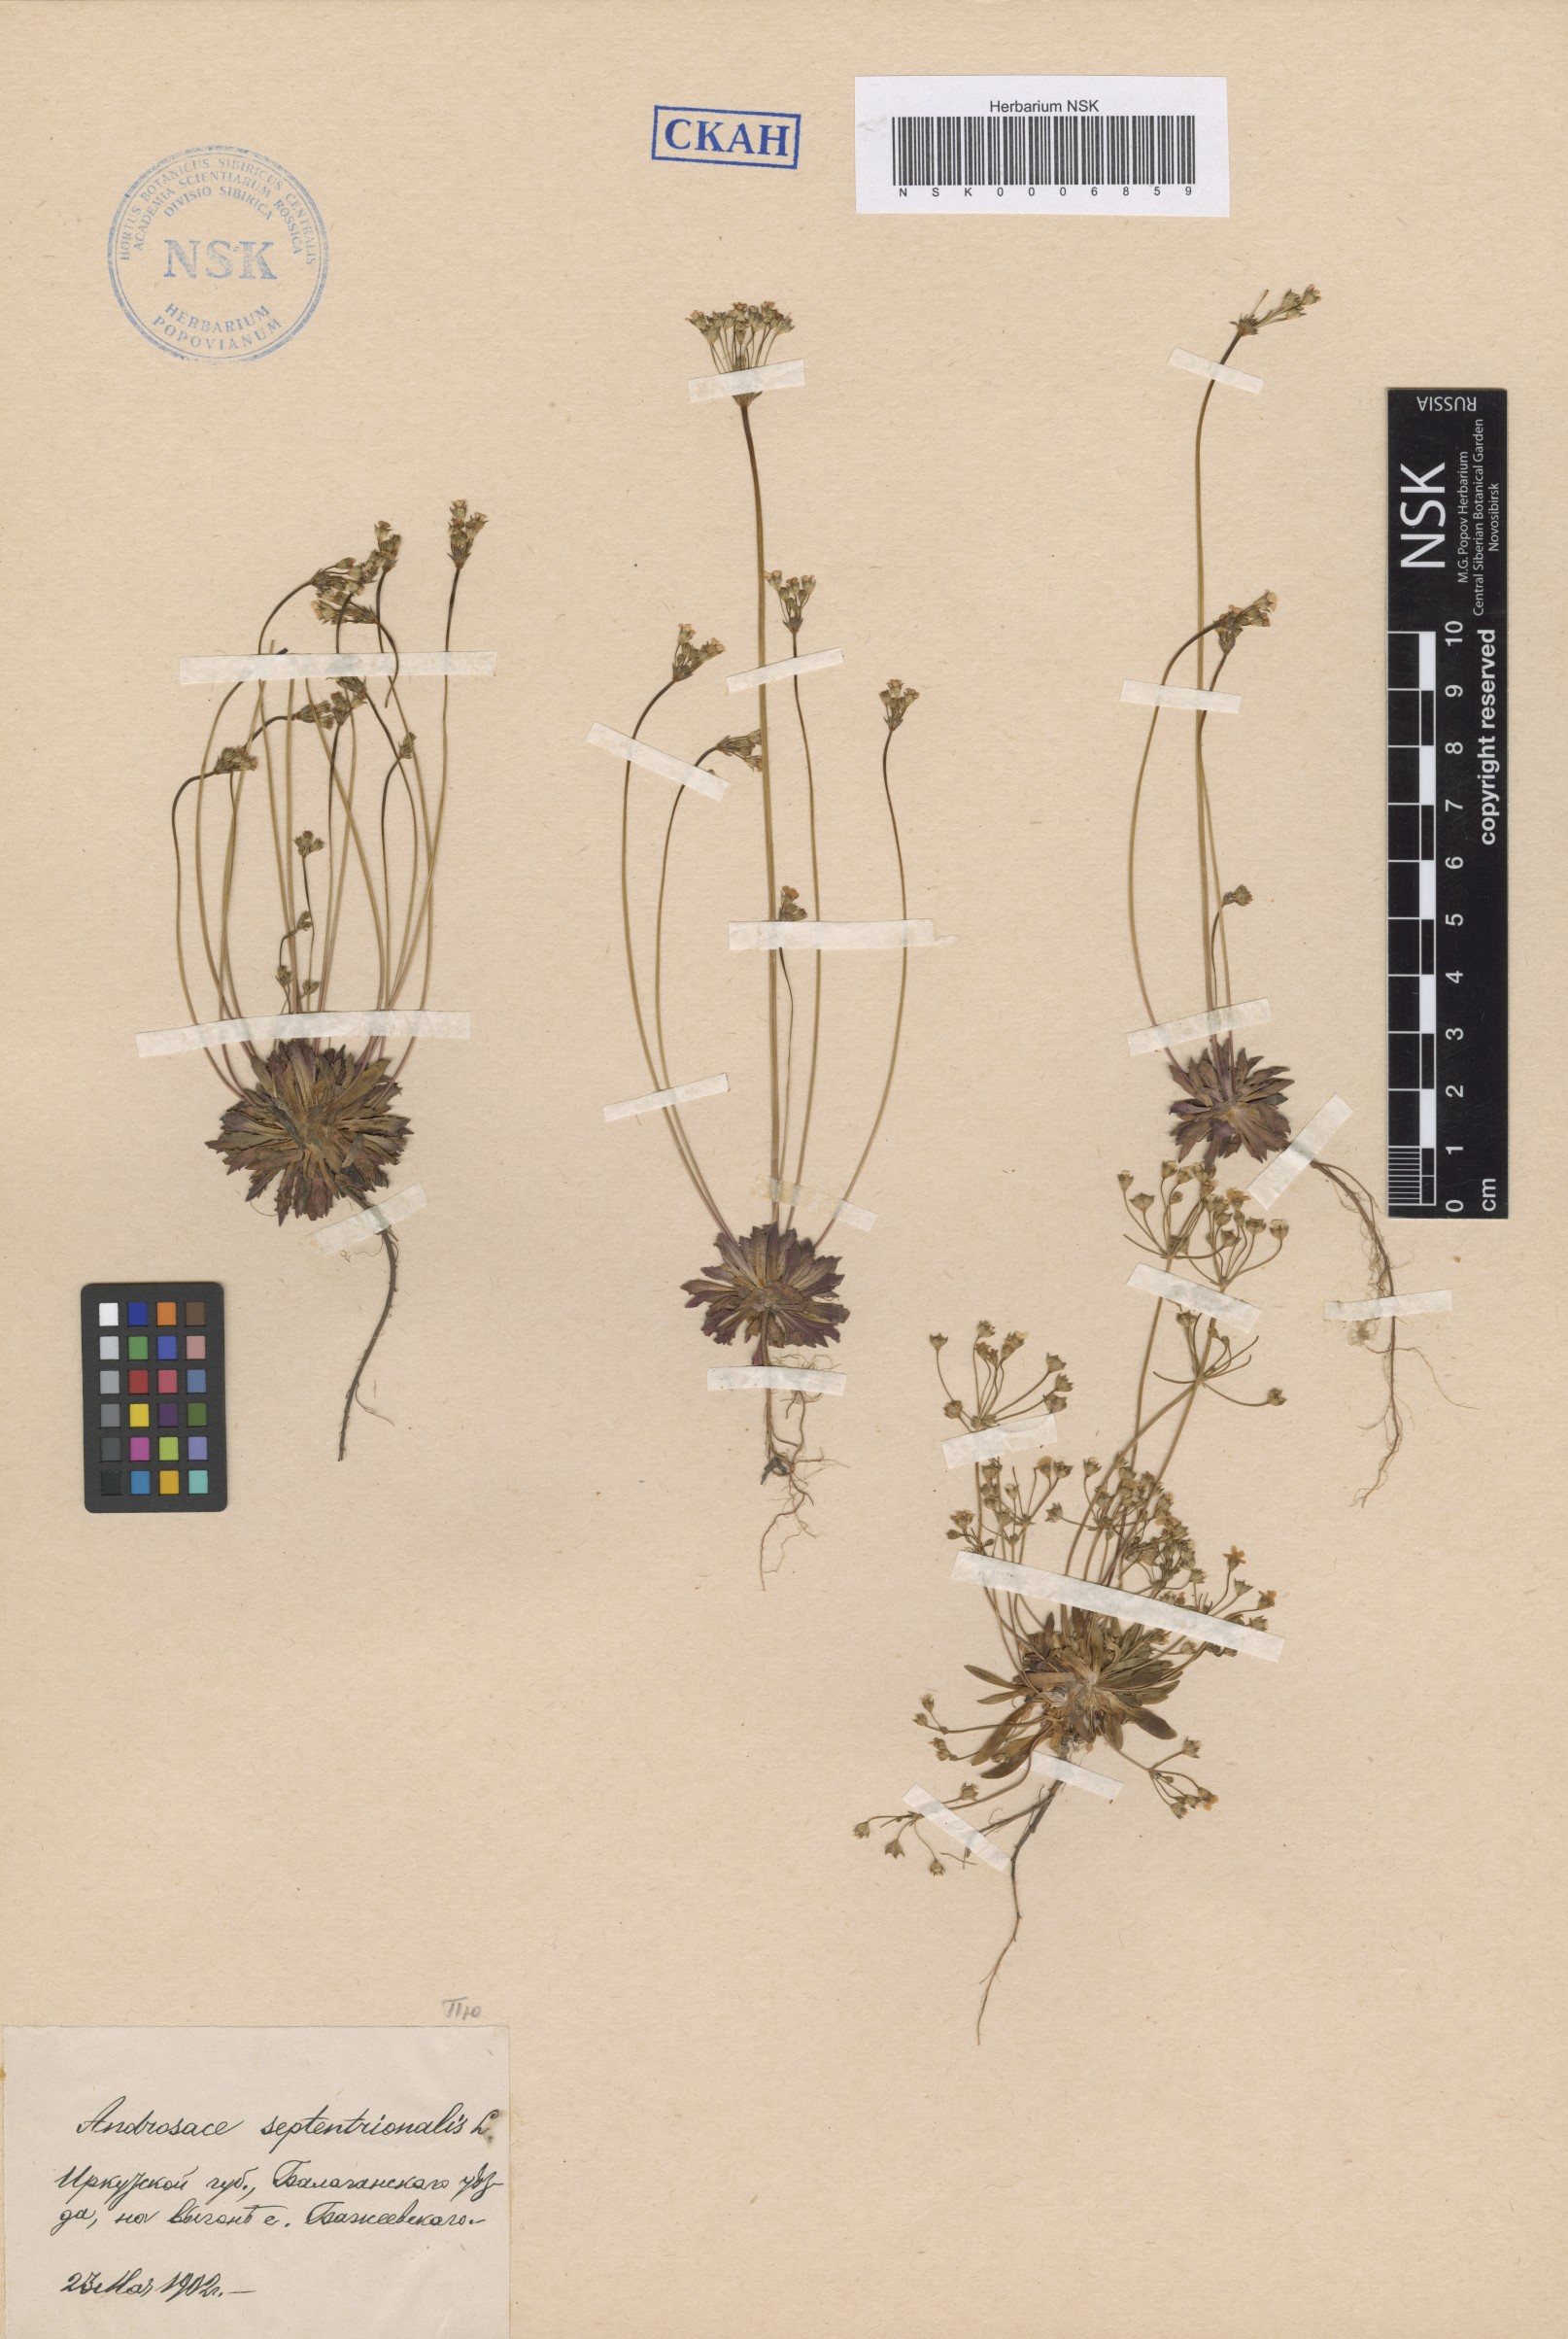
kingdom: Plantae
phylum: Tracheophyta
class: Magnoliopsida
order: Ericales
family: Primulaceae
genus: Androsace
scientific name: Androsace septentrionalis
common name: Hairy northern fairy-candelabra
